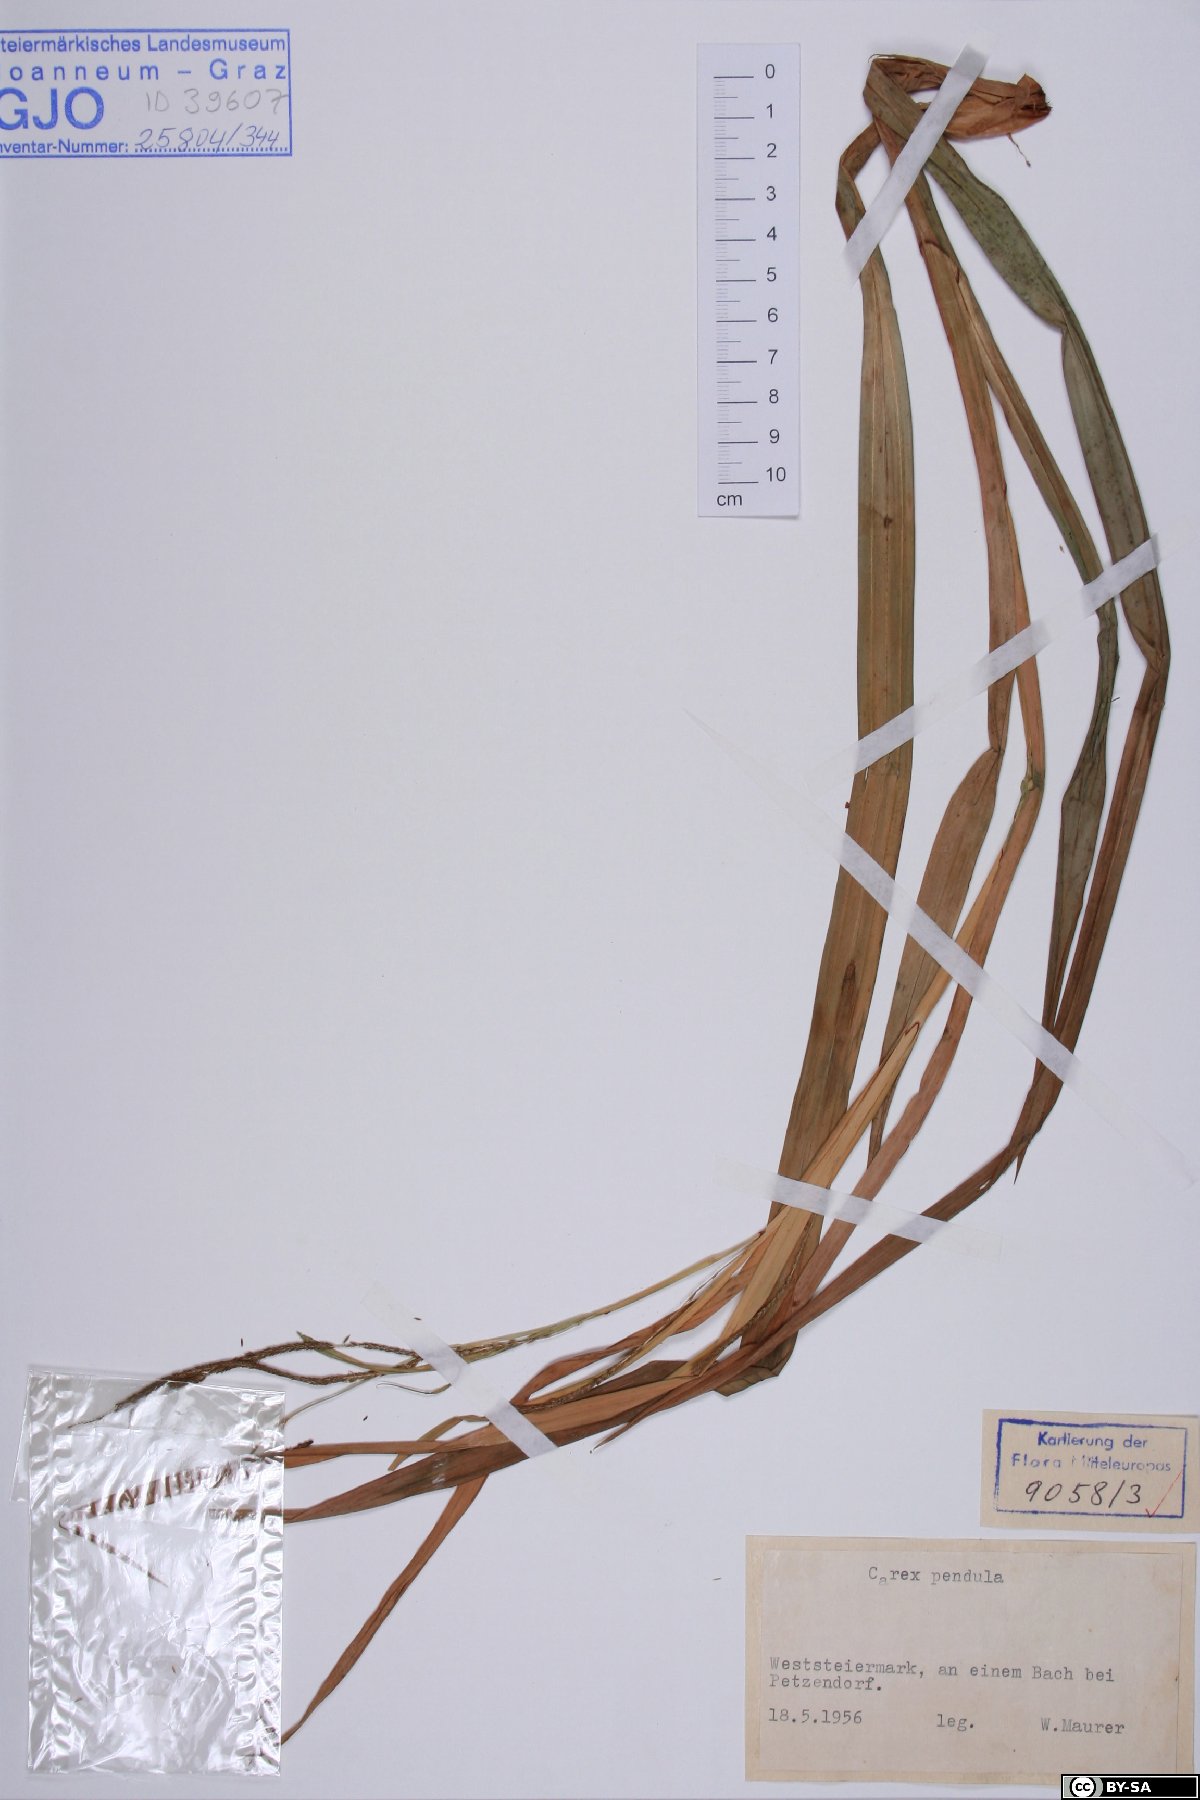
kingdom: Plantae
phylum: Tracheophyta
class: Liliopsida
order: Poales
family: Cyperaceae
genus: Carex
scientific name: Carex pendula
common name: Pendulous sedge
